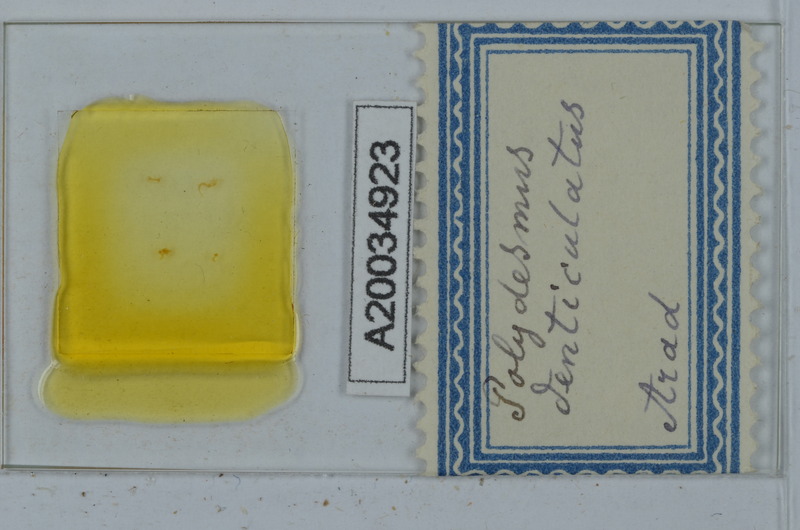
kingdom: Animalia
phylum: Arthropoda
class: Diplopoda
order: Polydesmida
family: Polydesmidae
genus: Polydesmus
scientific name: Polydesmus denticulatus
